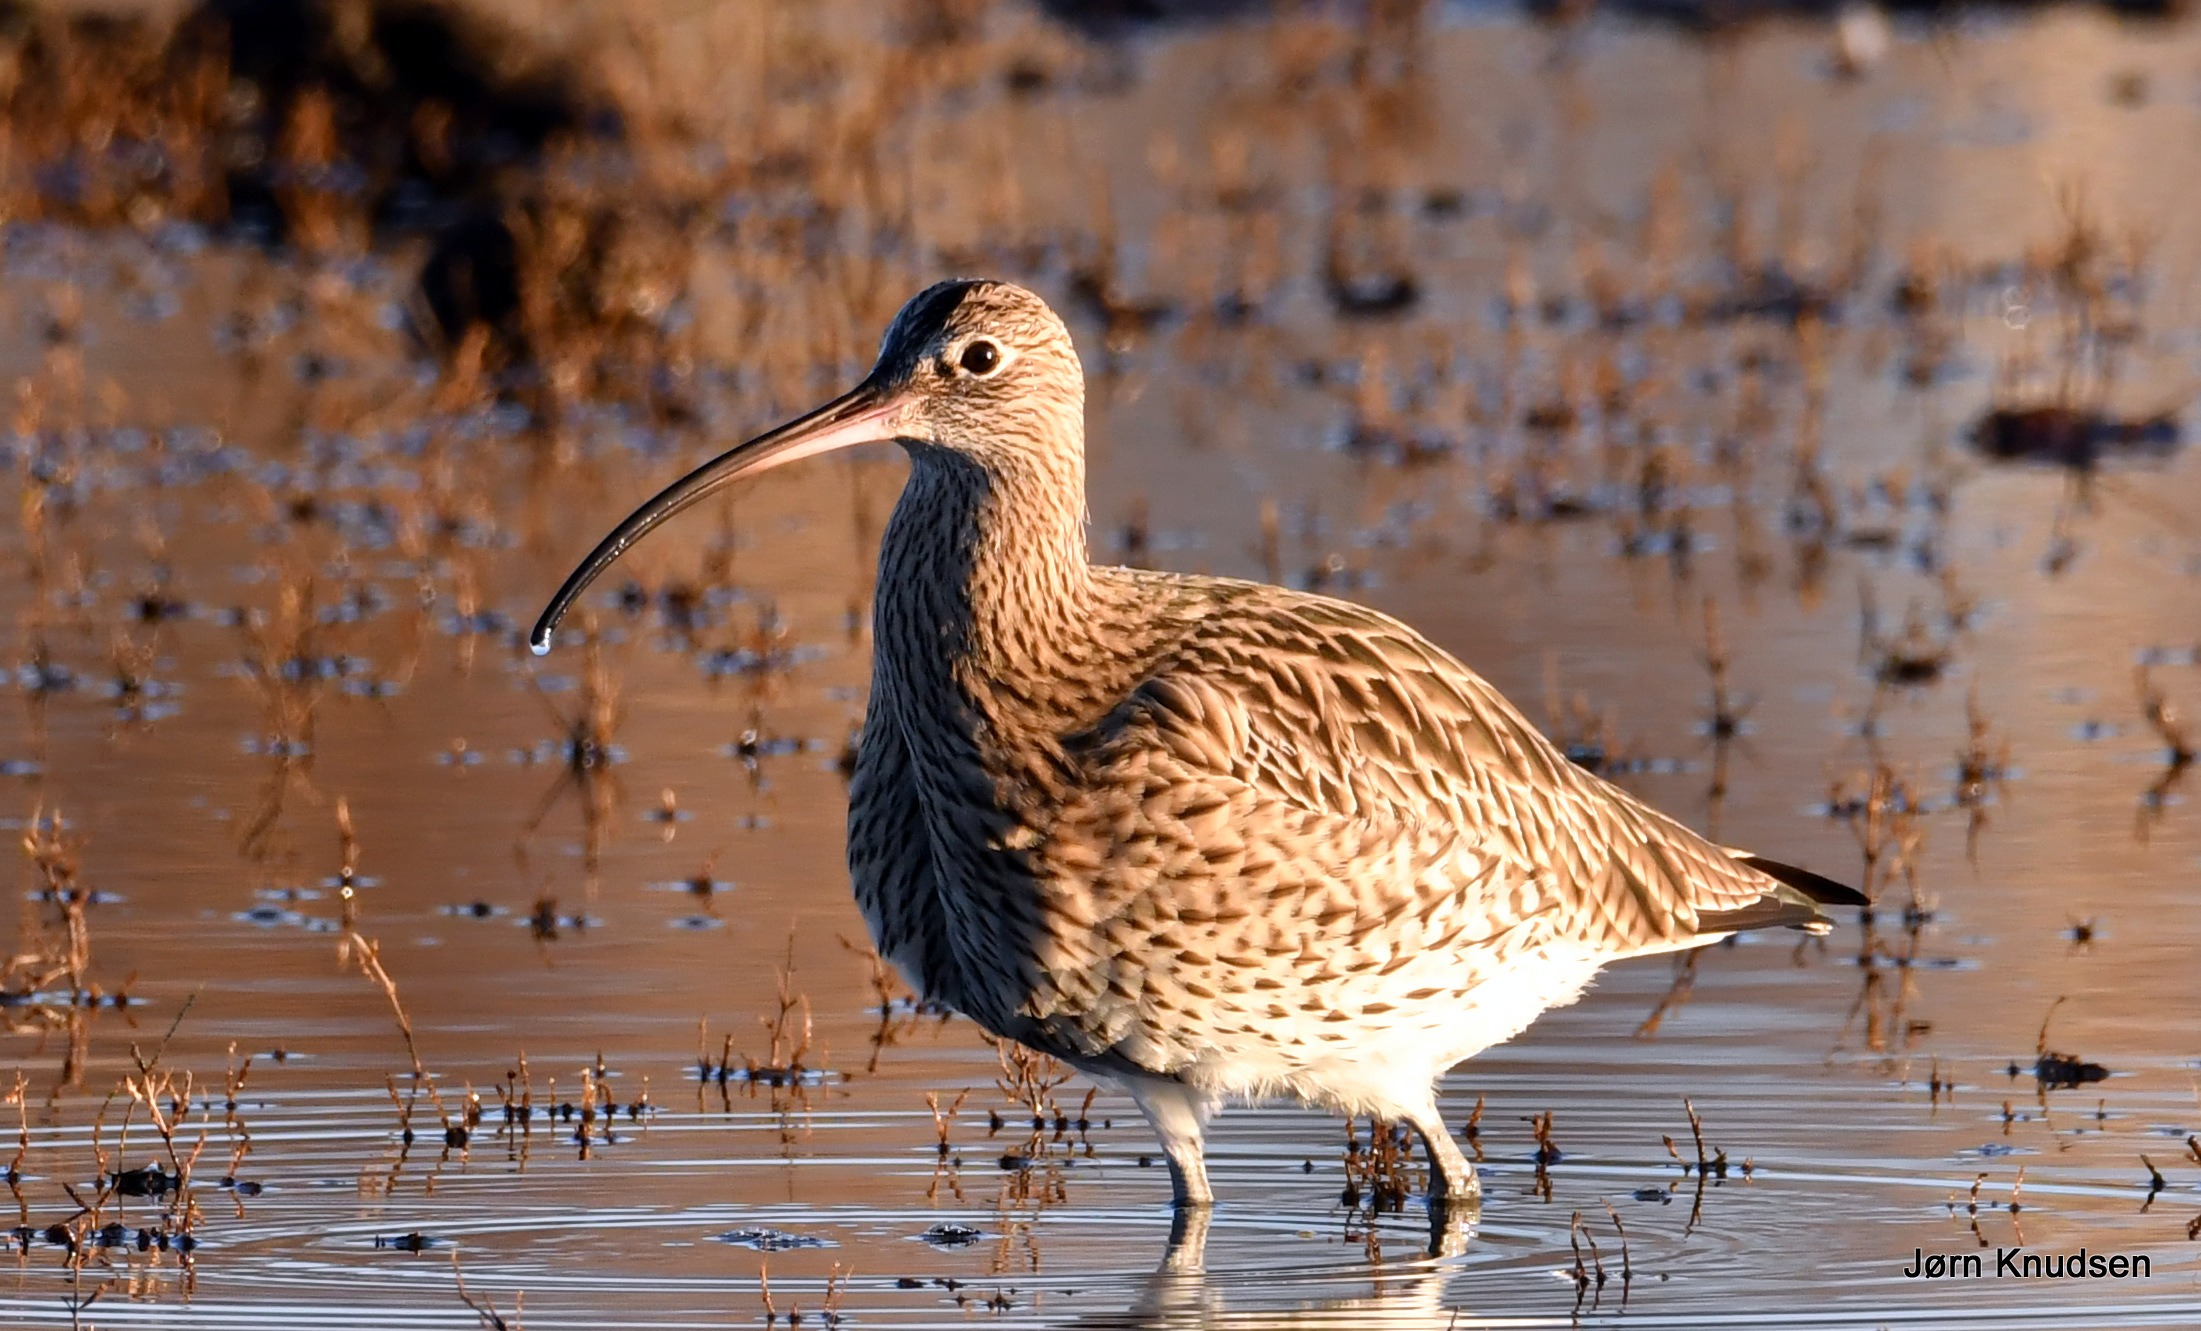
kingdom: Animalia
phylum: Chordata
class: Aves
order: Charadriiformes
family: Scolopacidae
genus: Numenius
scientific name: Numenius arquata
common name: Storspove
